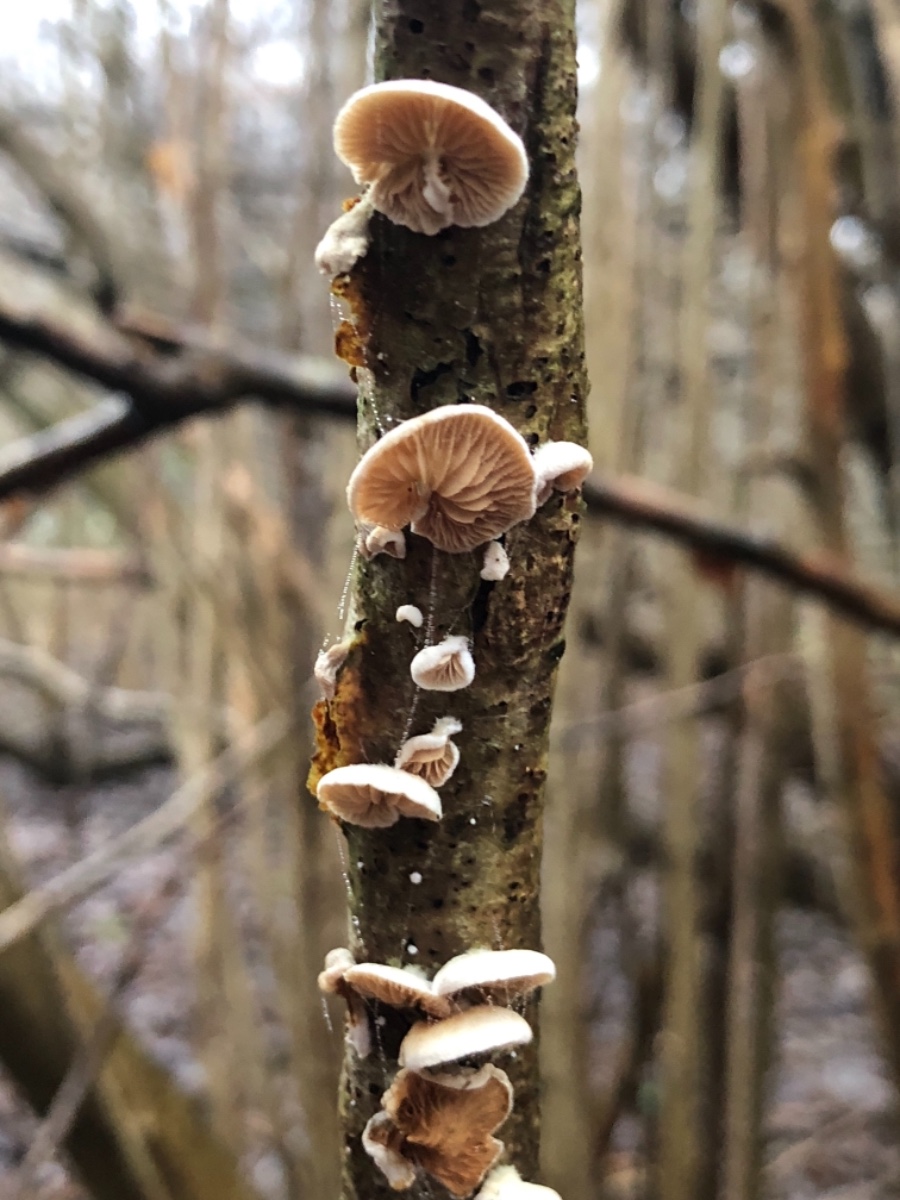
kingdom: Fungi
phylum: Basidiomycota
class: Agaricomycetes
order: Agaricales
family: Crepidotaceae
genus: Crepidotus
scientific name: Crepidotus
